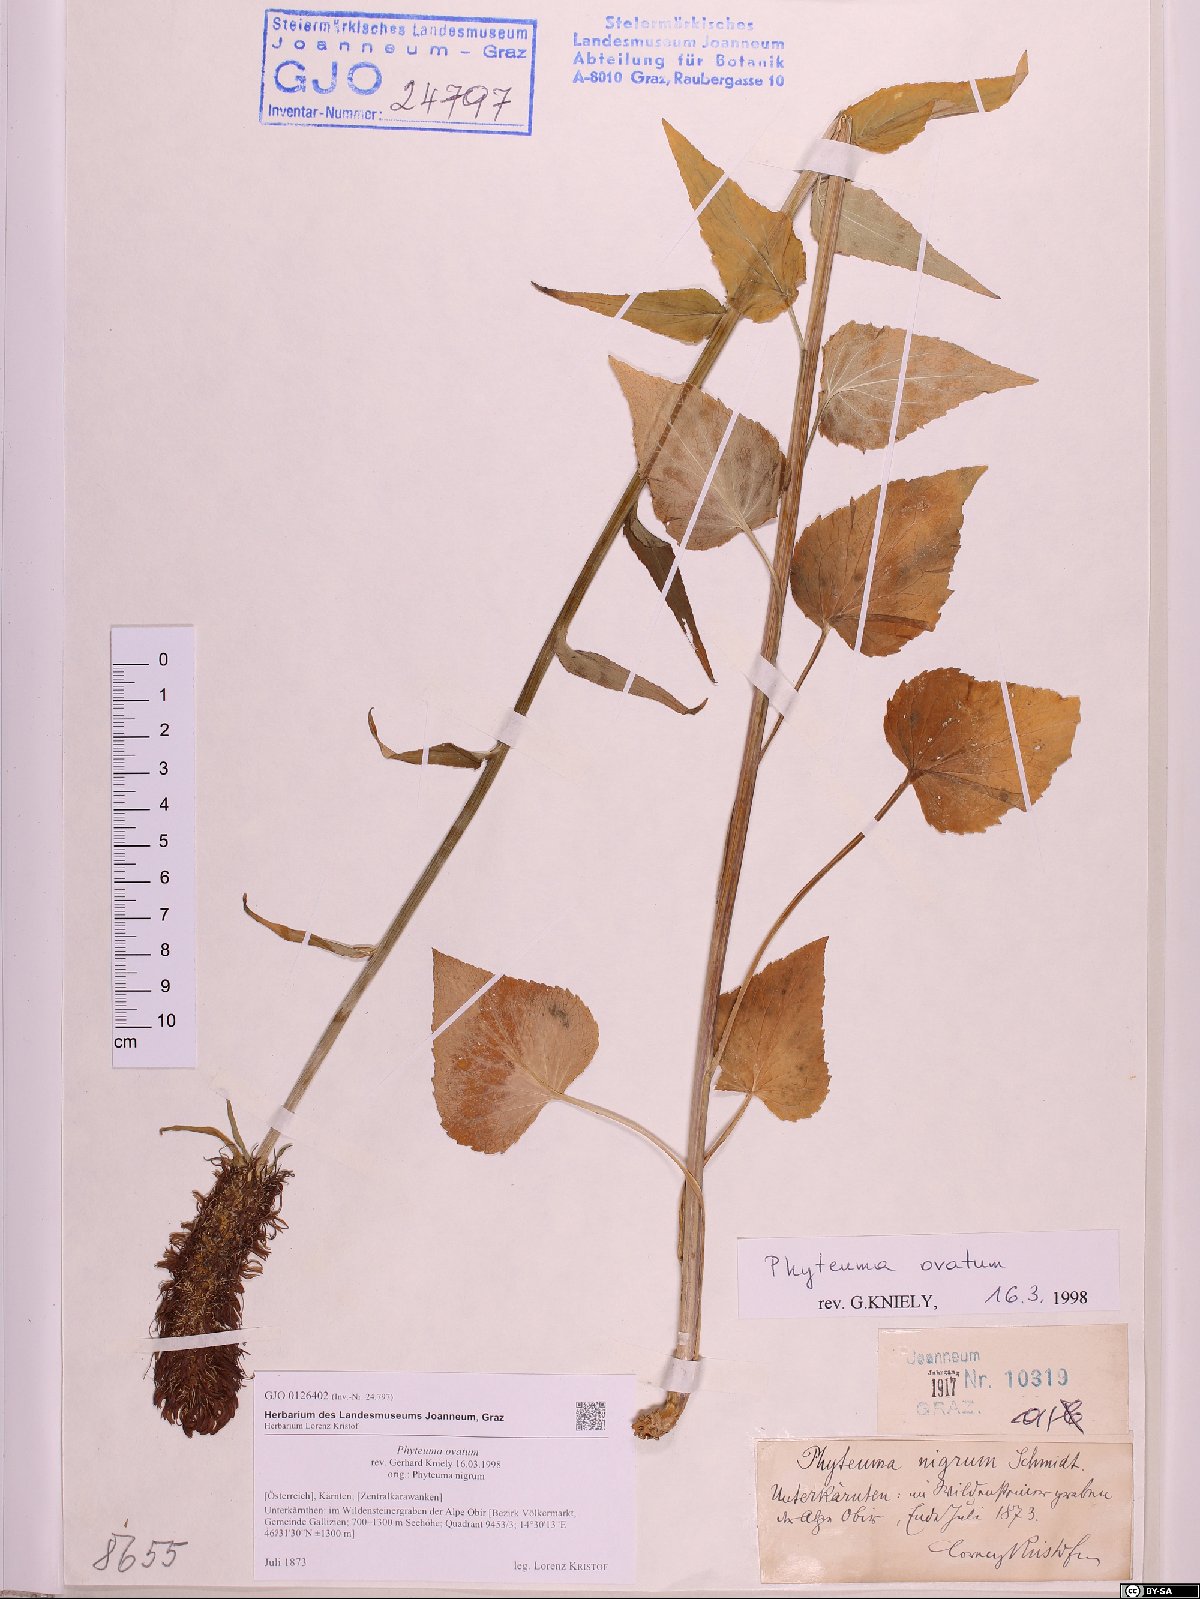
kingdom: Plantae
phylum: Tracheophyta
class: Magnoliopsida
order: Asterales
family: Campanulaceae
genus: Phyteuma
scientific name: Phyteuma ovatum
